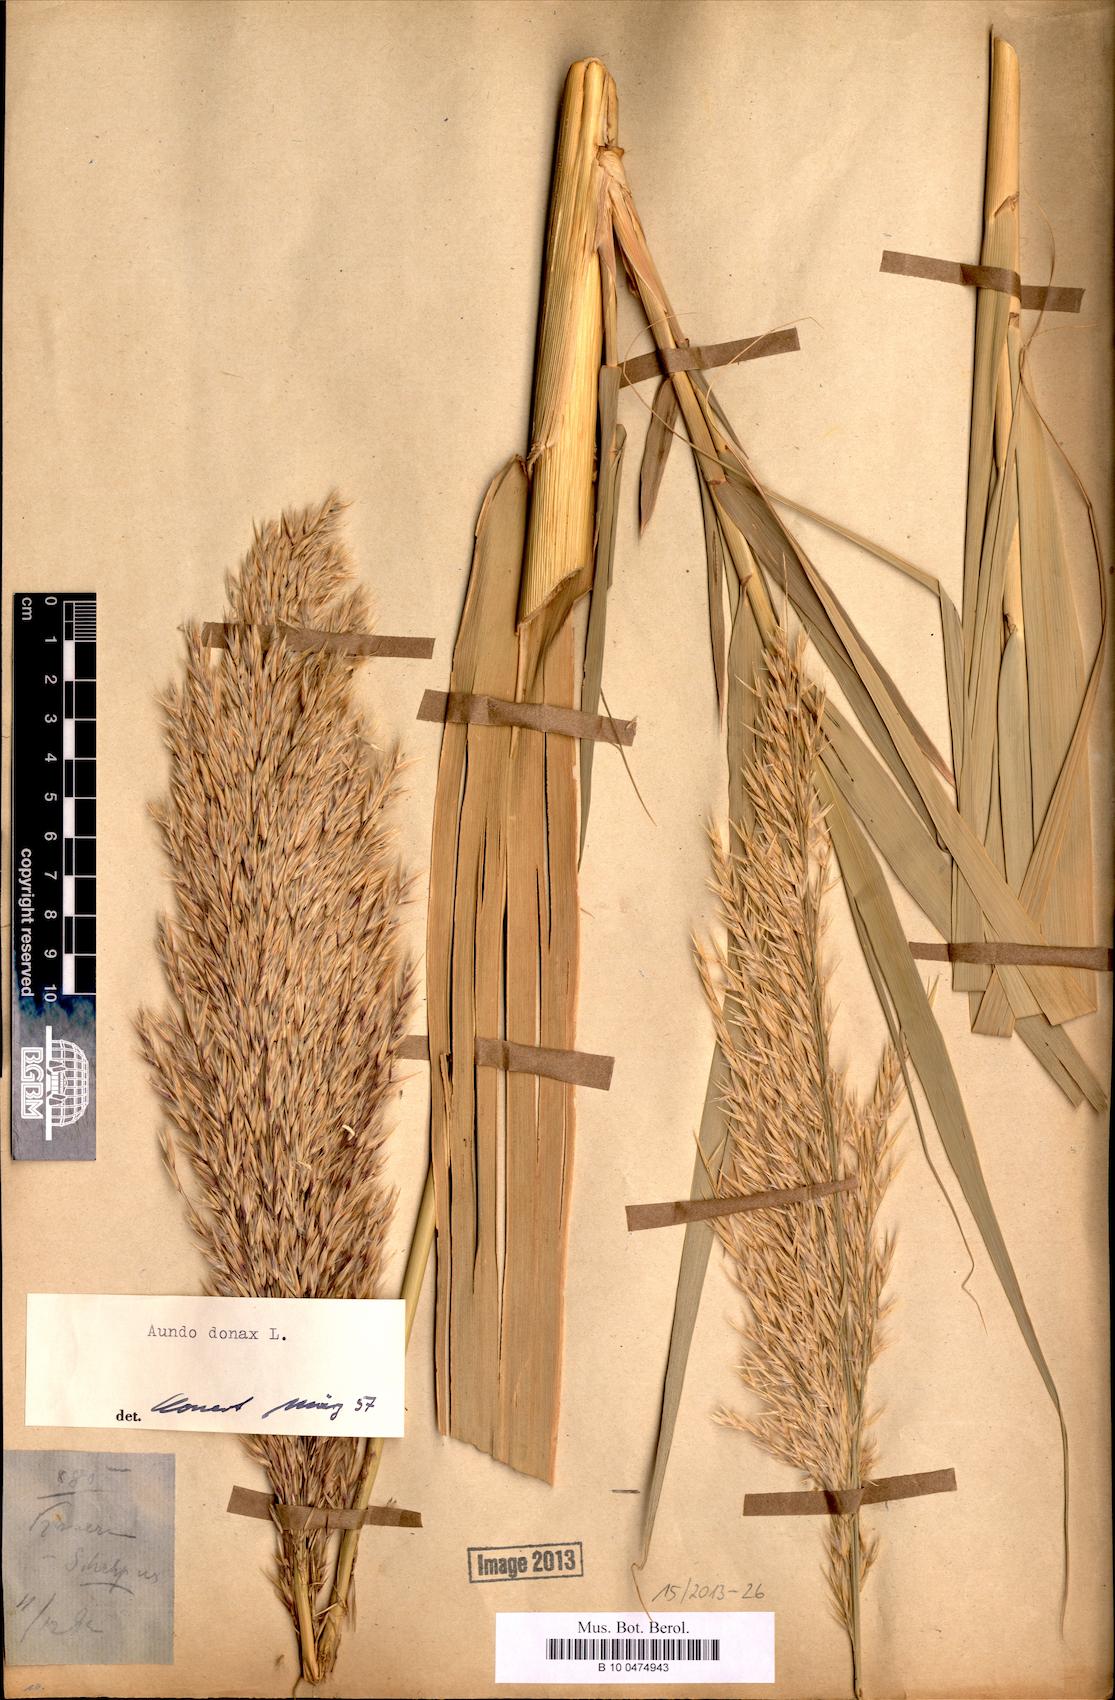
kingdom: Plantae
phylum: Tracheophyta
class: Liliopsida
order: Poales
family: Poaceae
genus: Arundo
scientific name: Arundo donax
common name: Giant reed
